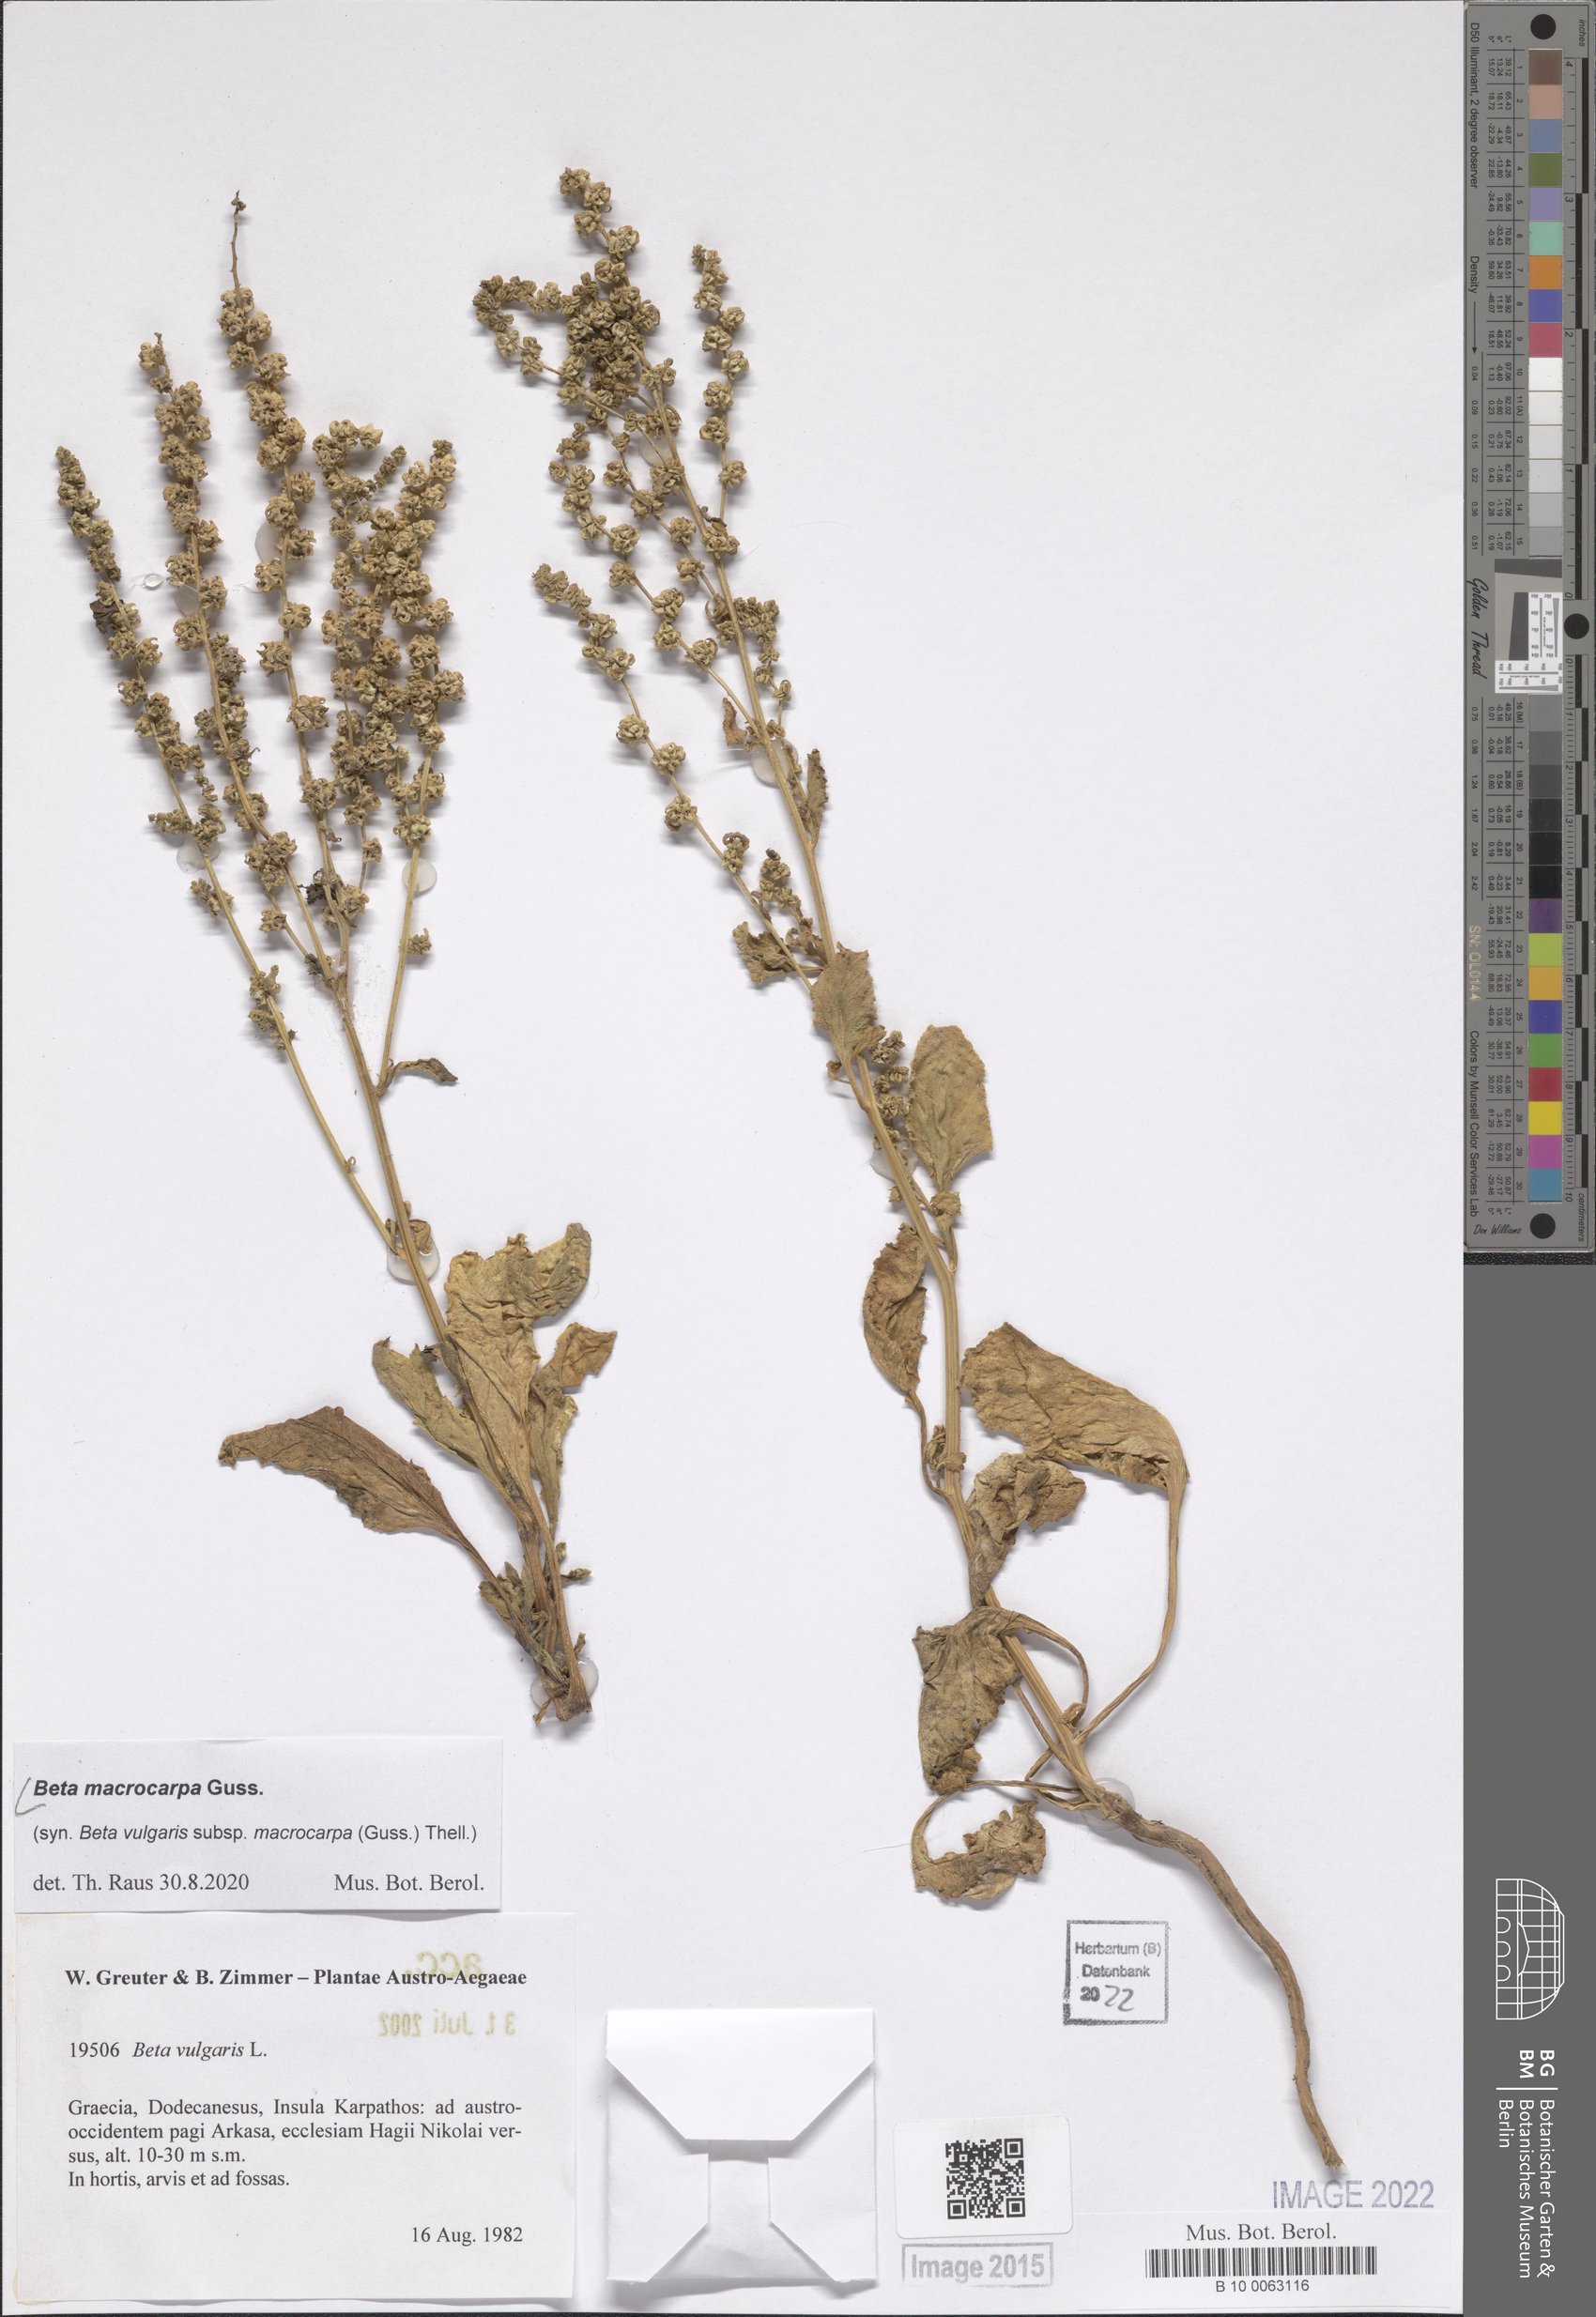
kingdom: Plantae
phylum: Tracheophyta
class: Magnoliopsida
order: Caryophyllales
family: Amaranthaceae
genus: Beta
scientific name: Beta macrocarpa
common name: Beet
